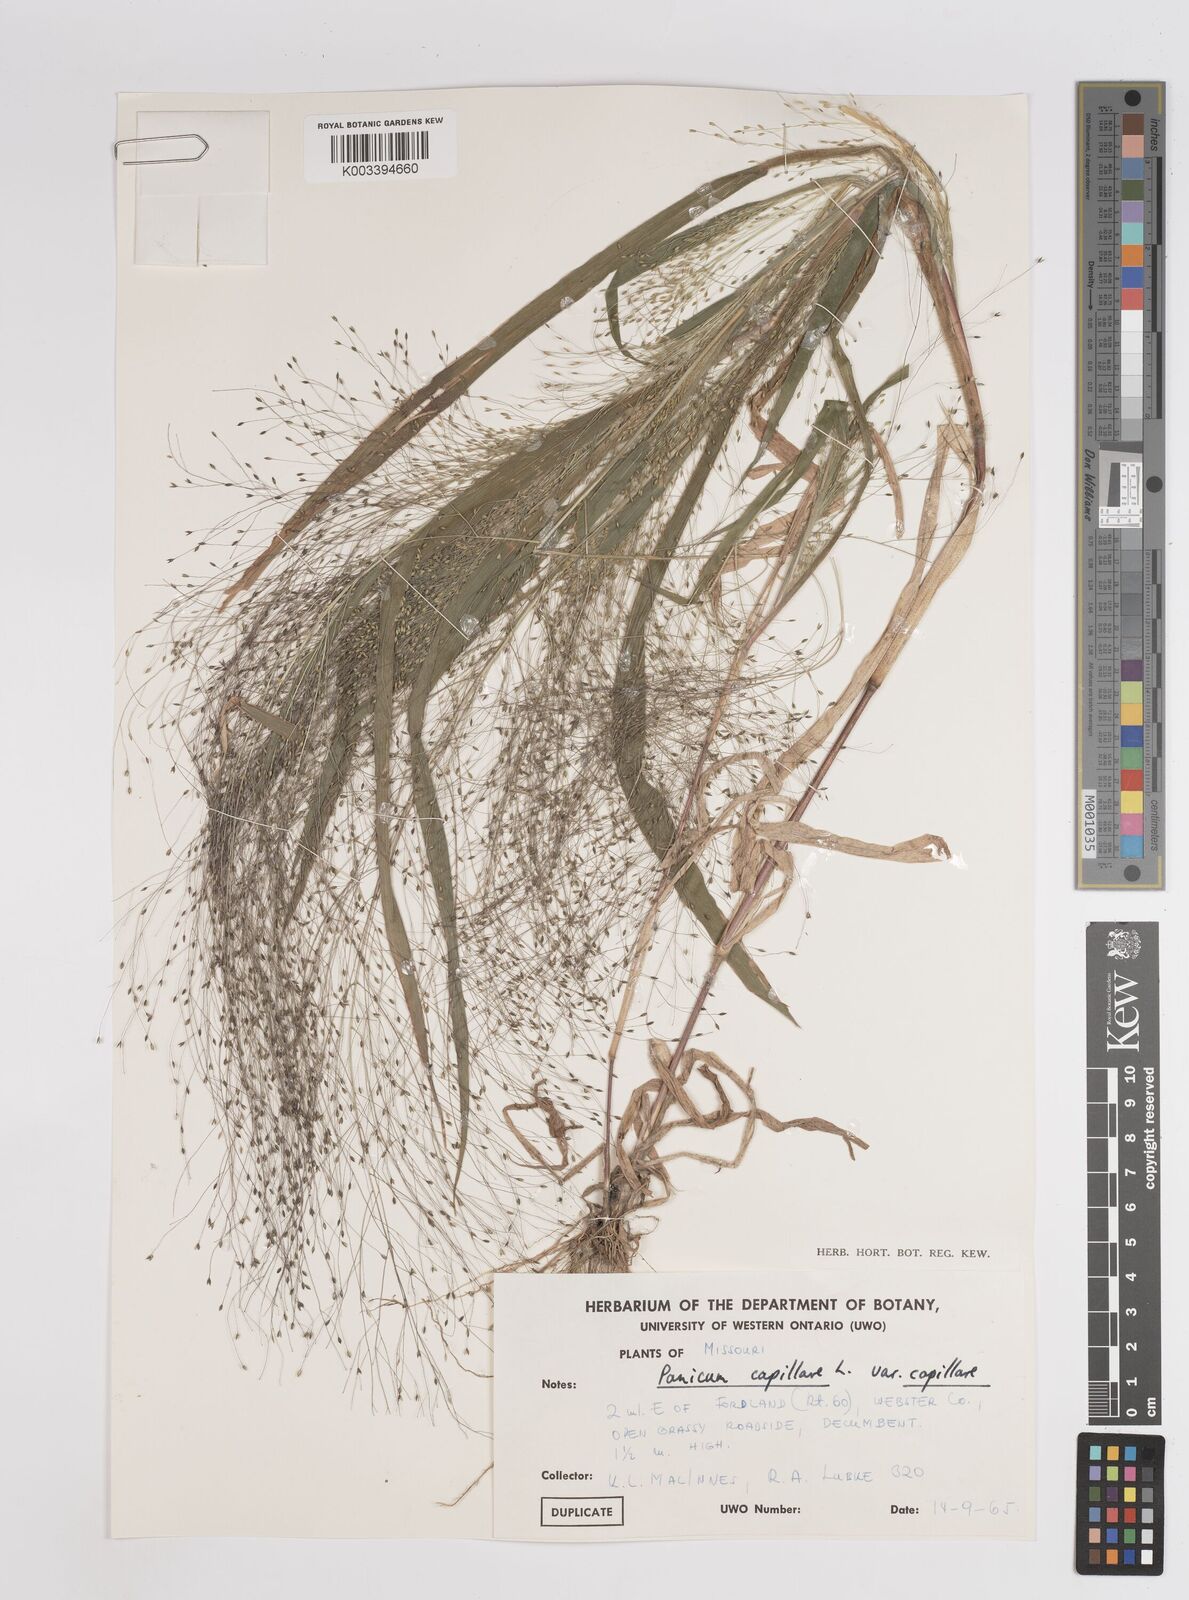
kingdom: Plantae
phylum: Tracheophyta
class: Liliopsida
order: Poales
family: Poaceae
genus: Panicum
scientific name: Panicum capillare
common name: Witch-grass
